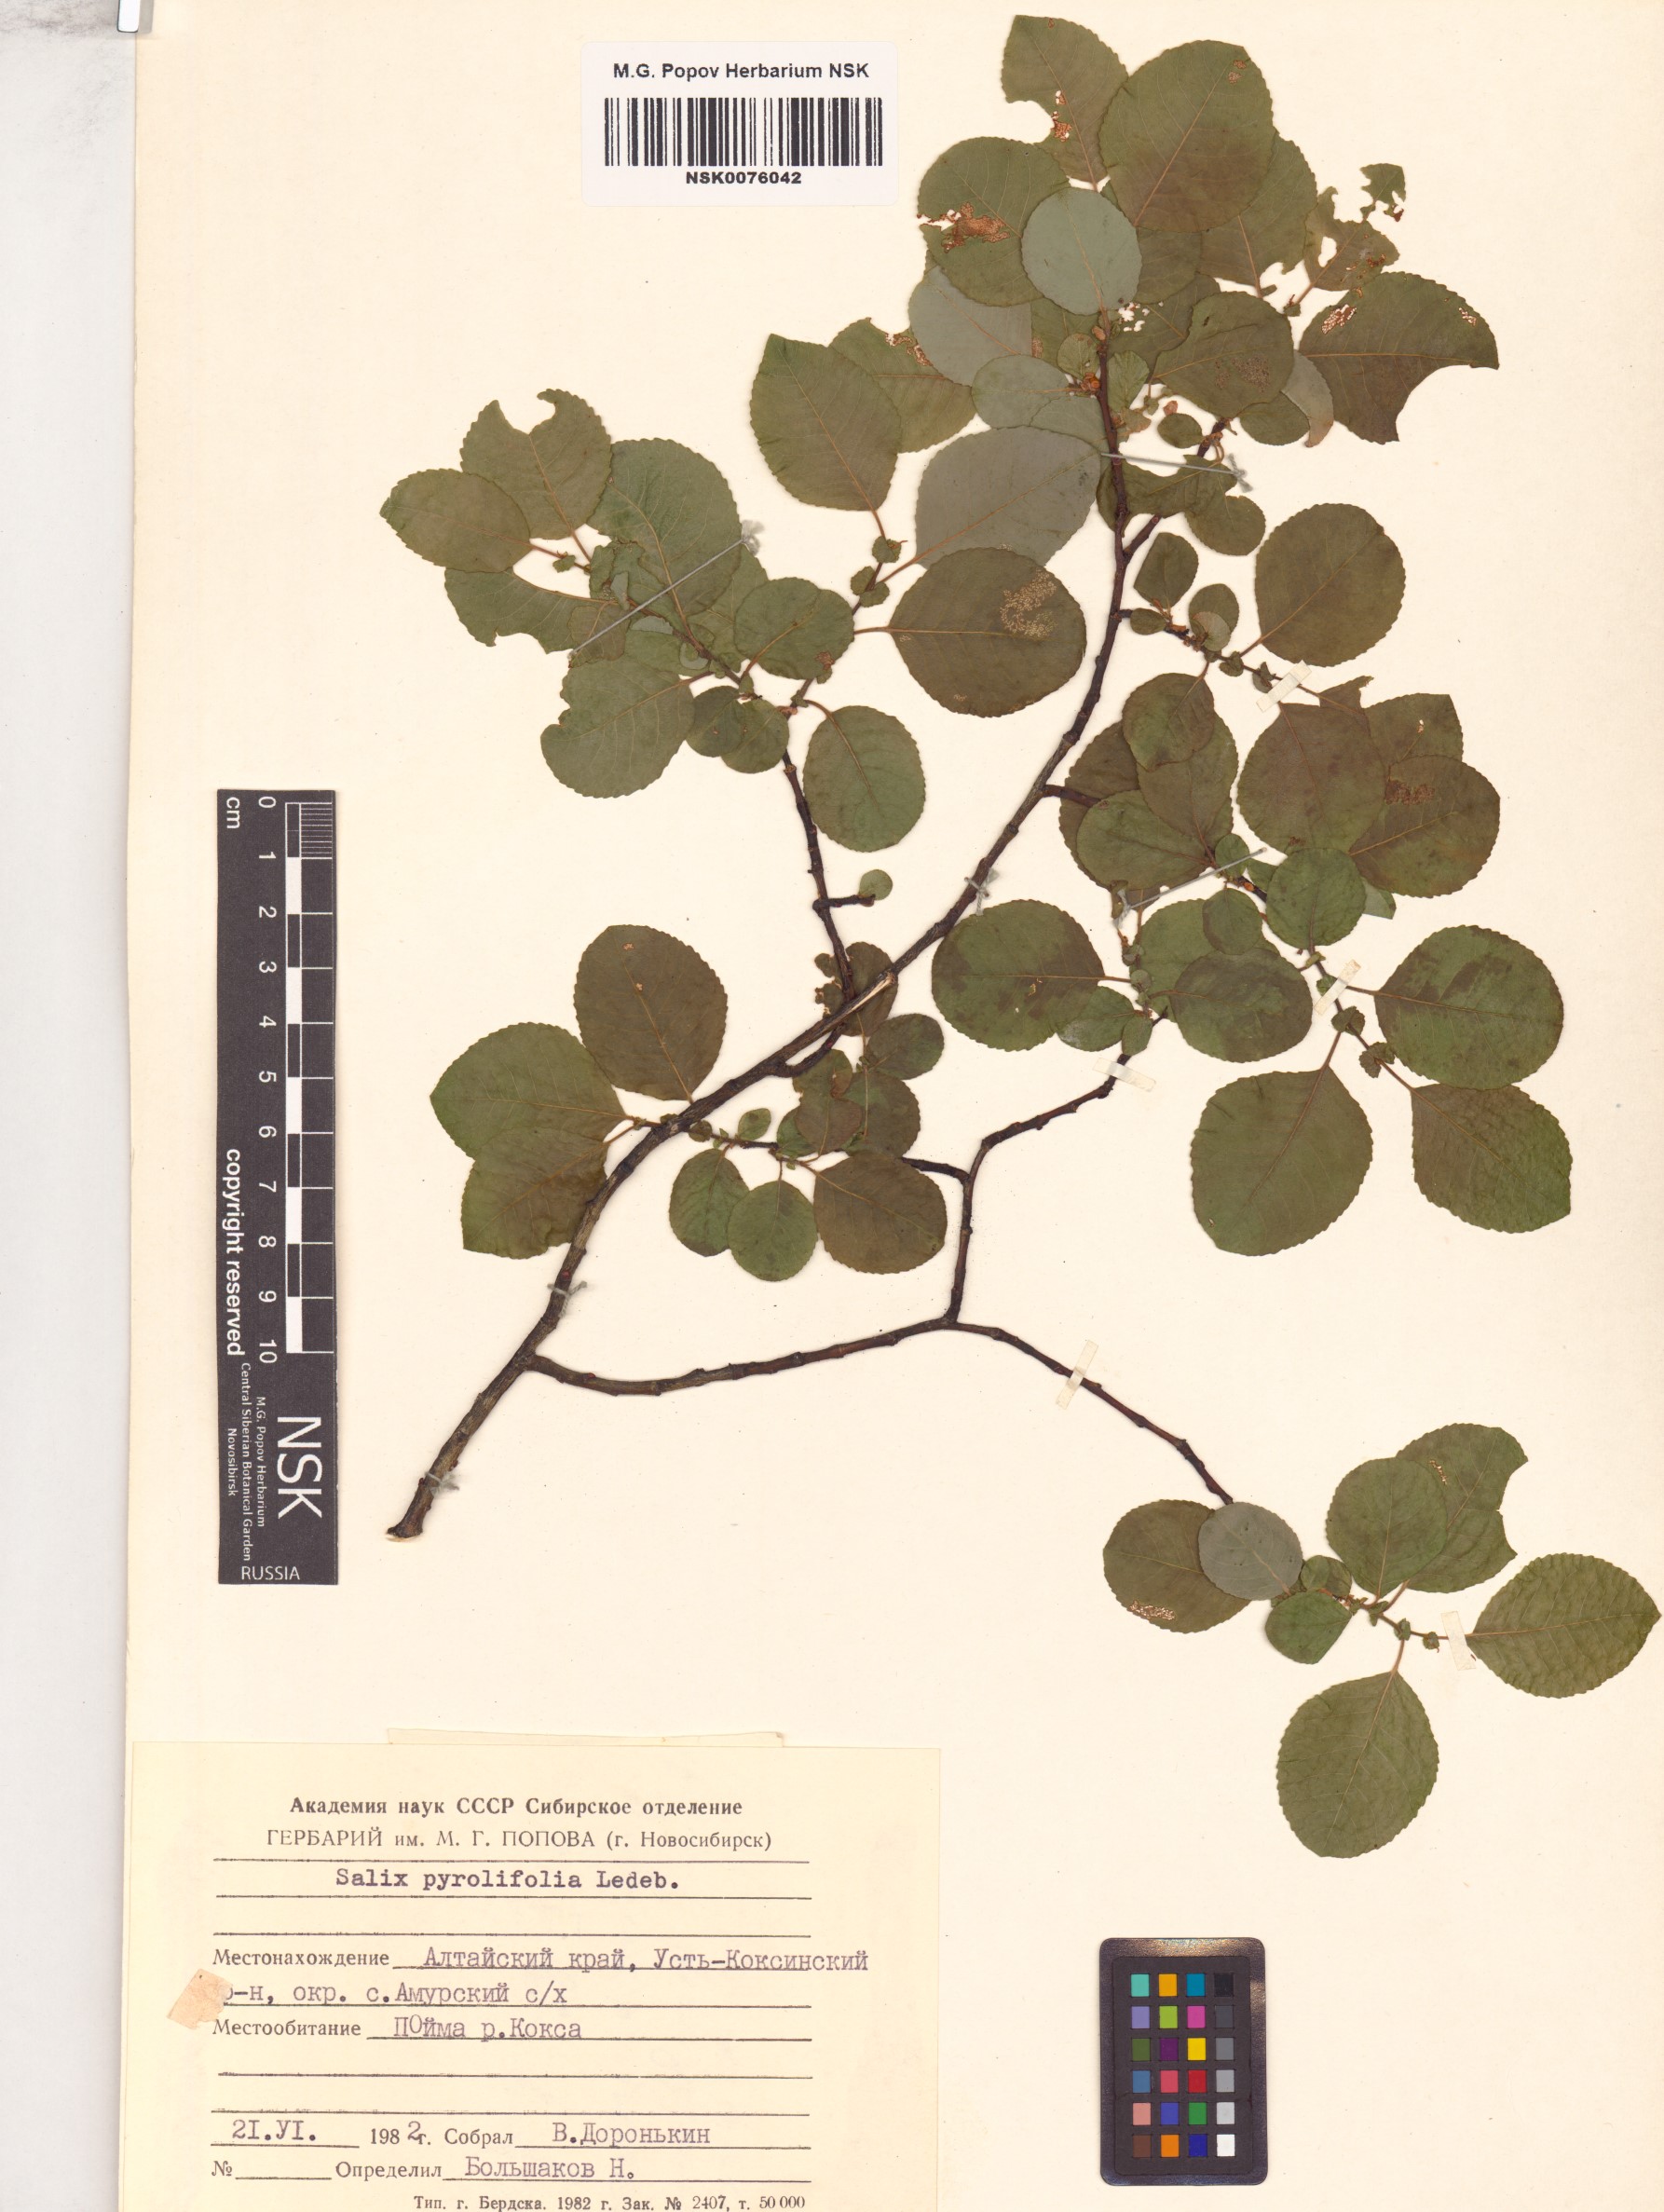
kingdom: Plantae
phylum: Tracheophyta
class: Magnoliopsida
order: Malpighiales
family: Salicaceae
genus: Salix
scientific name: Salix pyrolifolia
